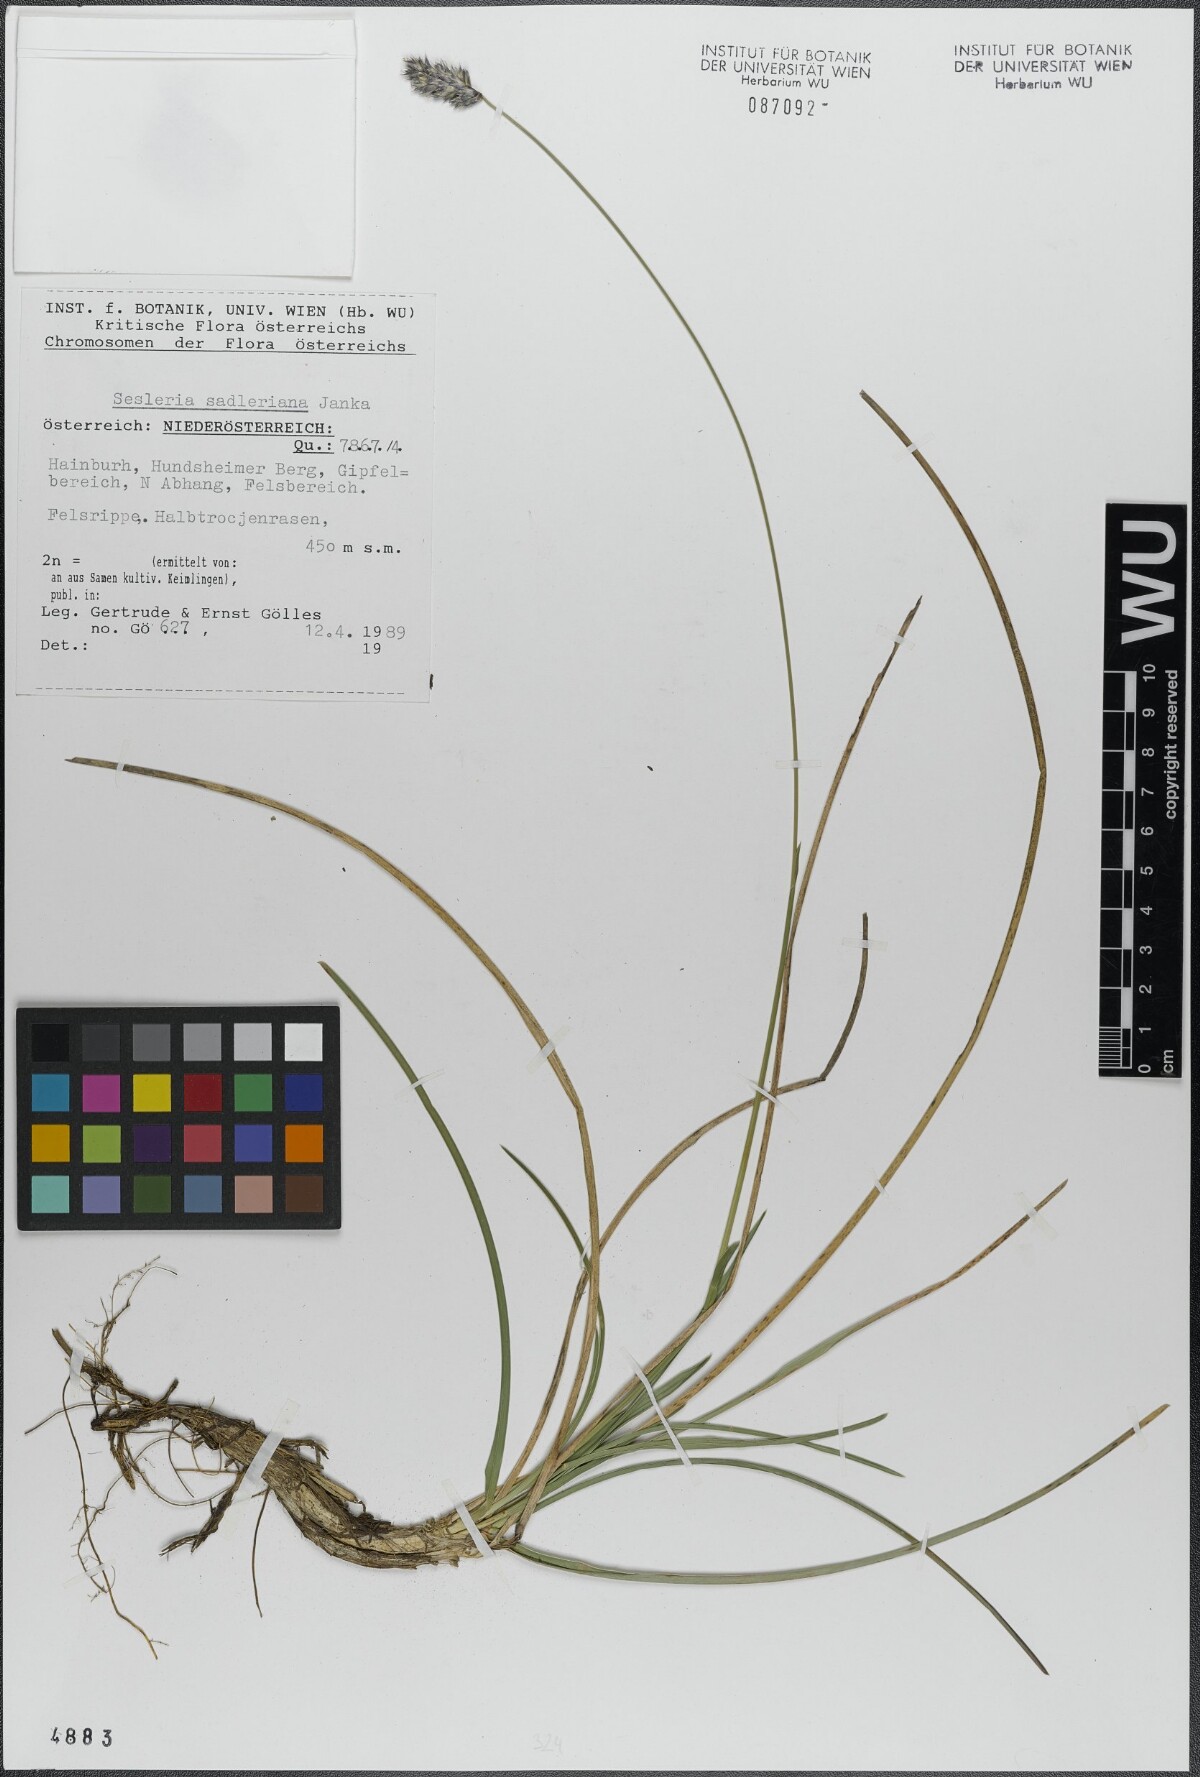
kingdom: Plantae
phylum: Tracheophyta
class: Liliopsida
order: Poales
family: Poaceae
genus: Sesleria
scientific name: Sesleria sadleriana
